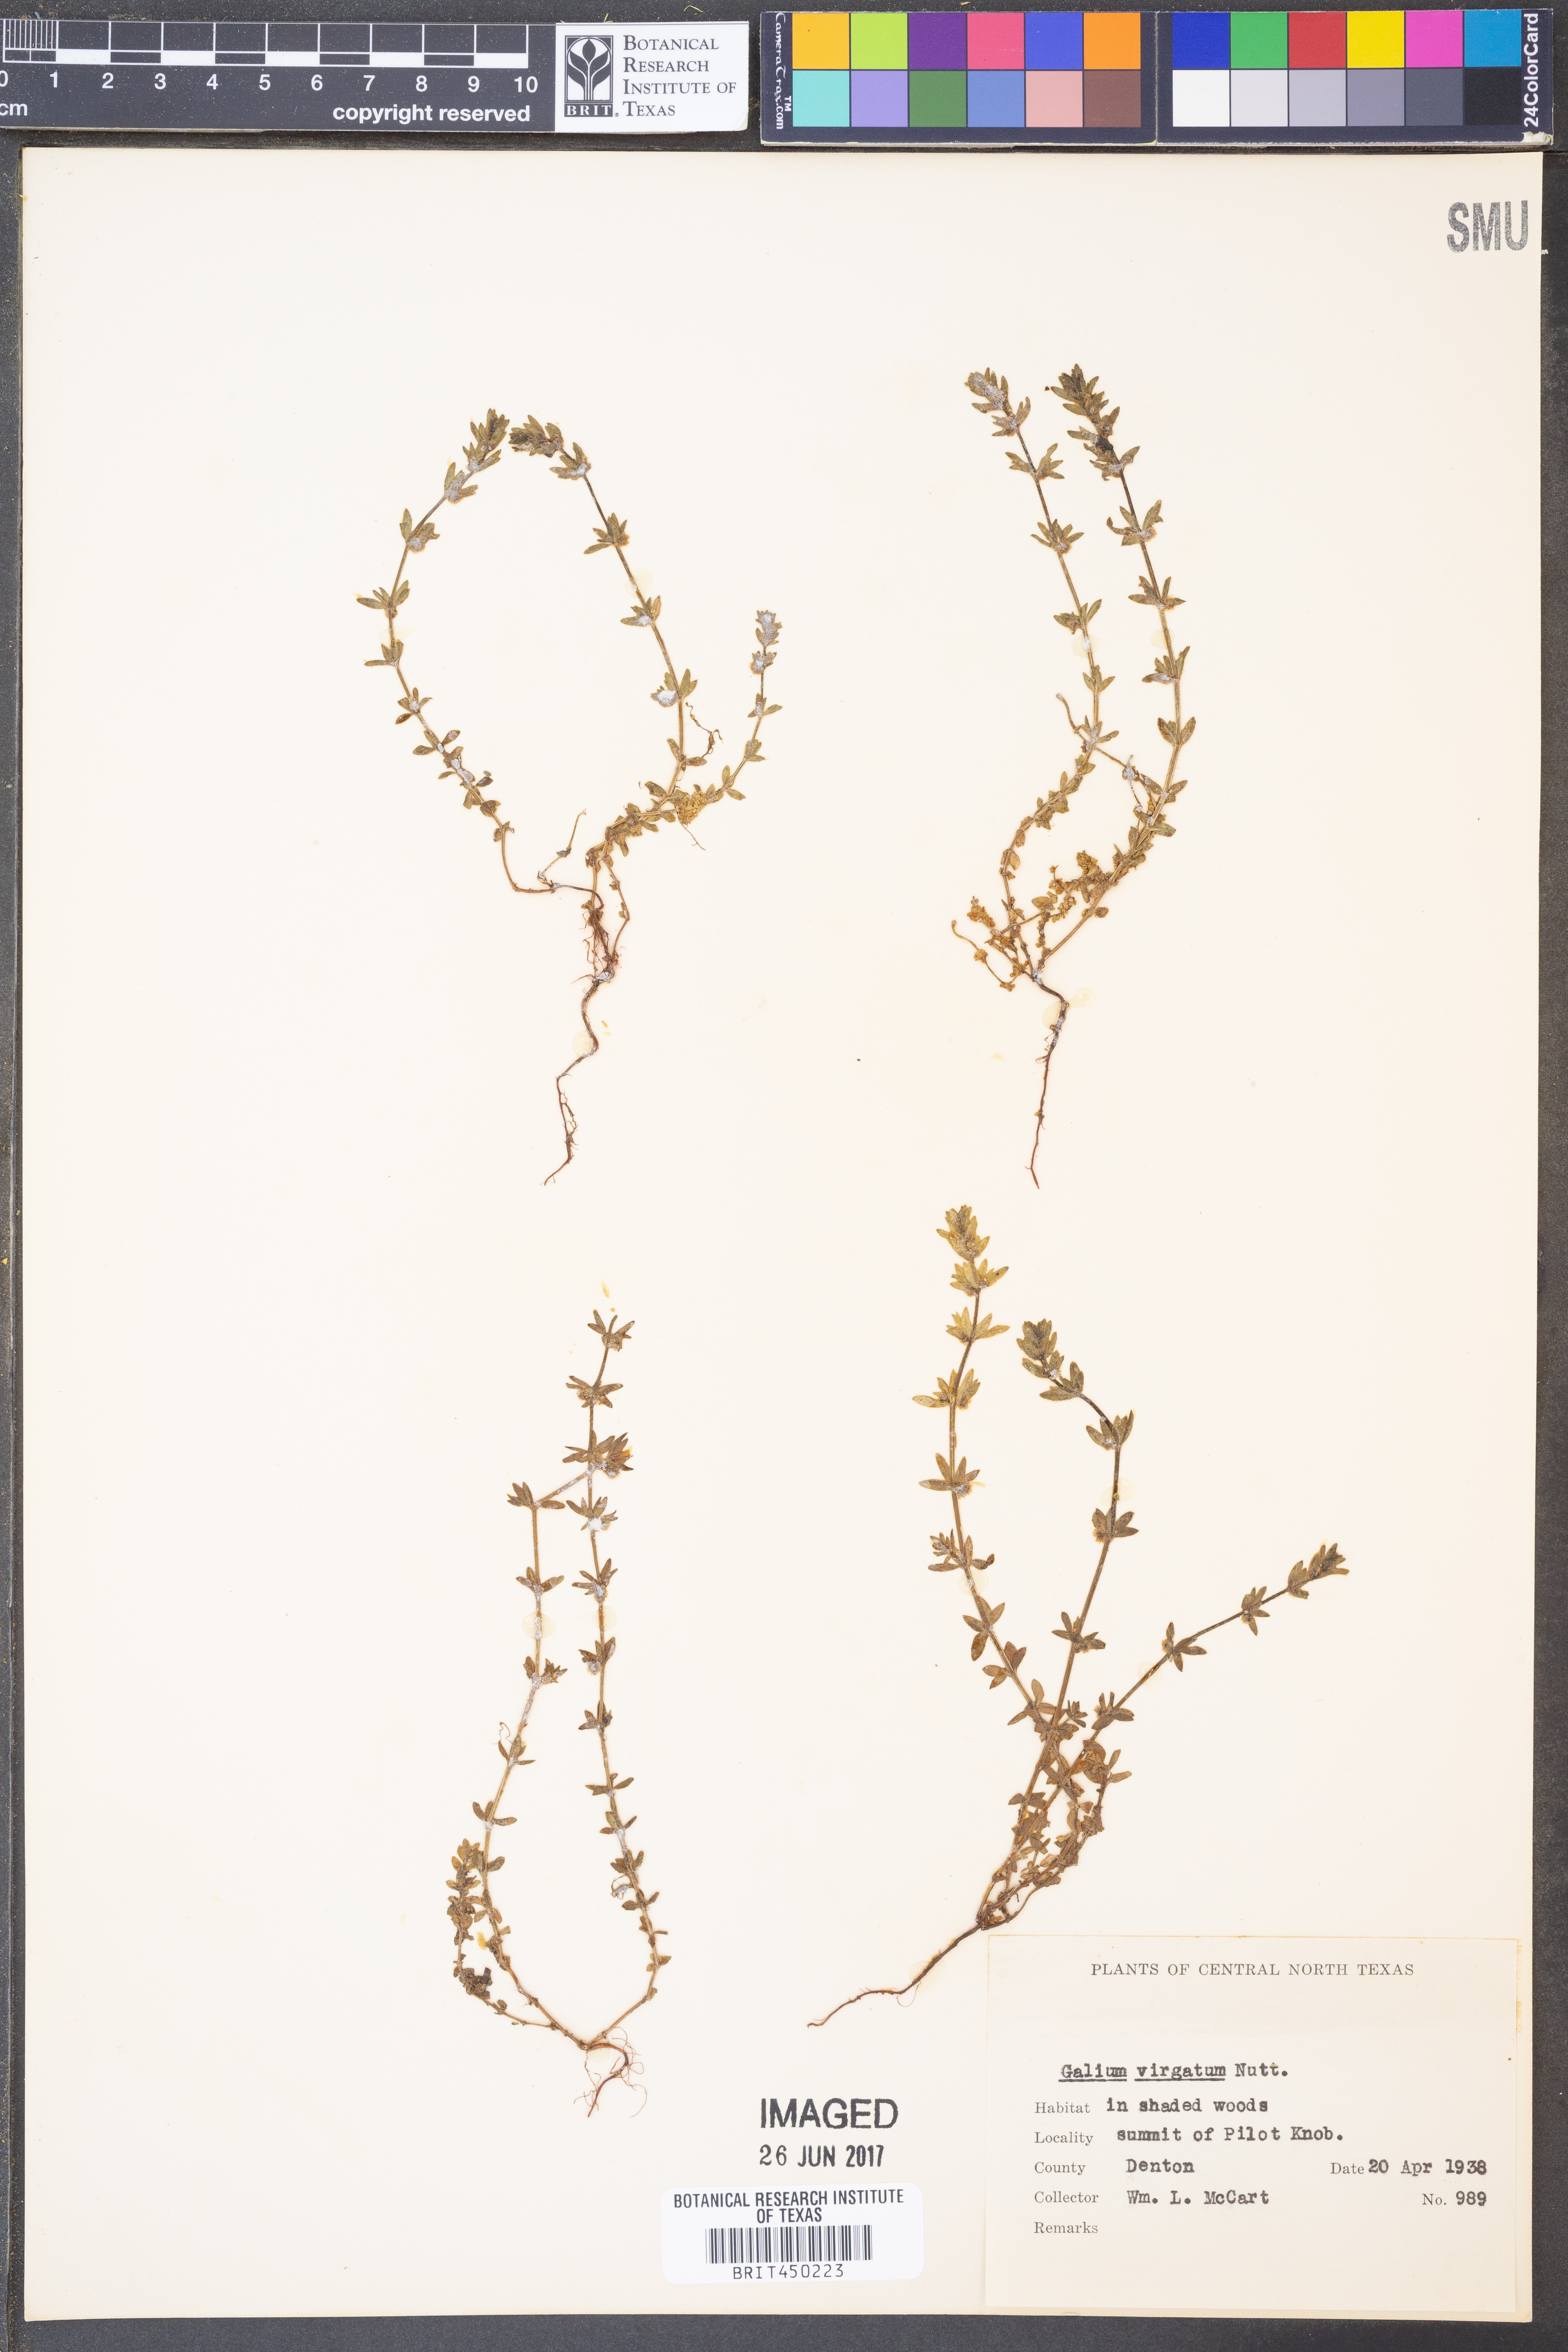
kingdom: Plantae
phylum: Tracheophyta
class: Magnoliopsida
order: Gentianales
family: Rubiaceae
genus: Galium
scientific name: Galium virgatum
